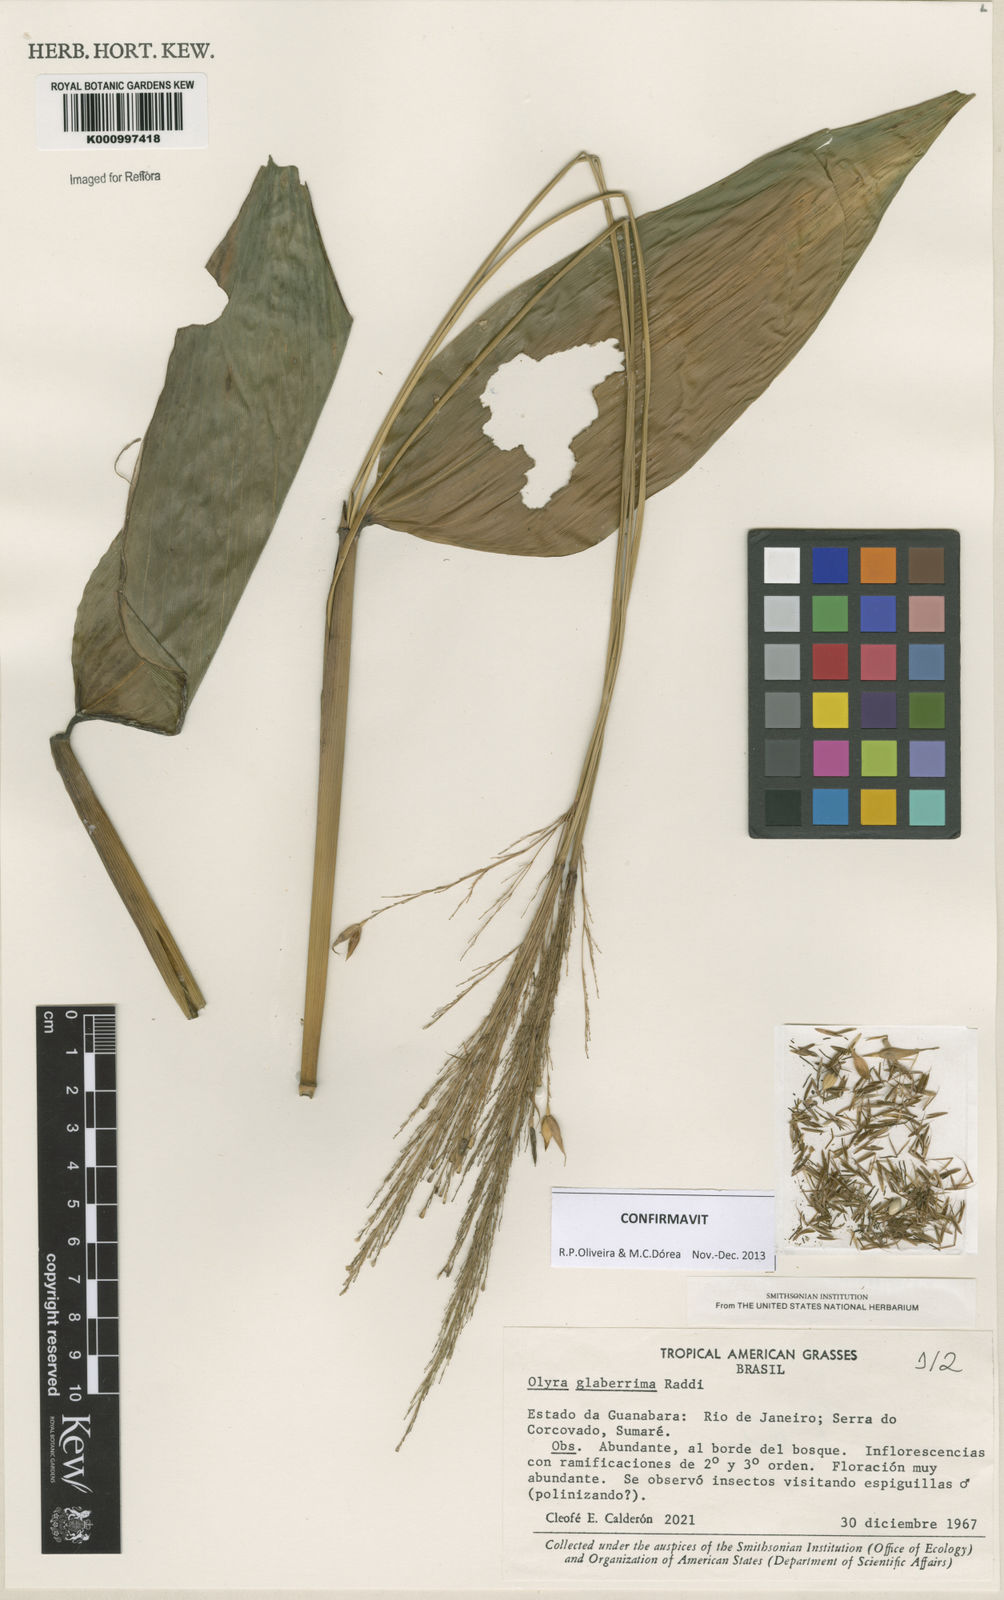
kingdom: Plantae
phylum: Tracheophyta
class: Liliopsida
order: Poales
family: Poaceae
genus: Olyra
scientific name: Olyra glaberrima
